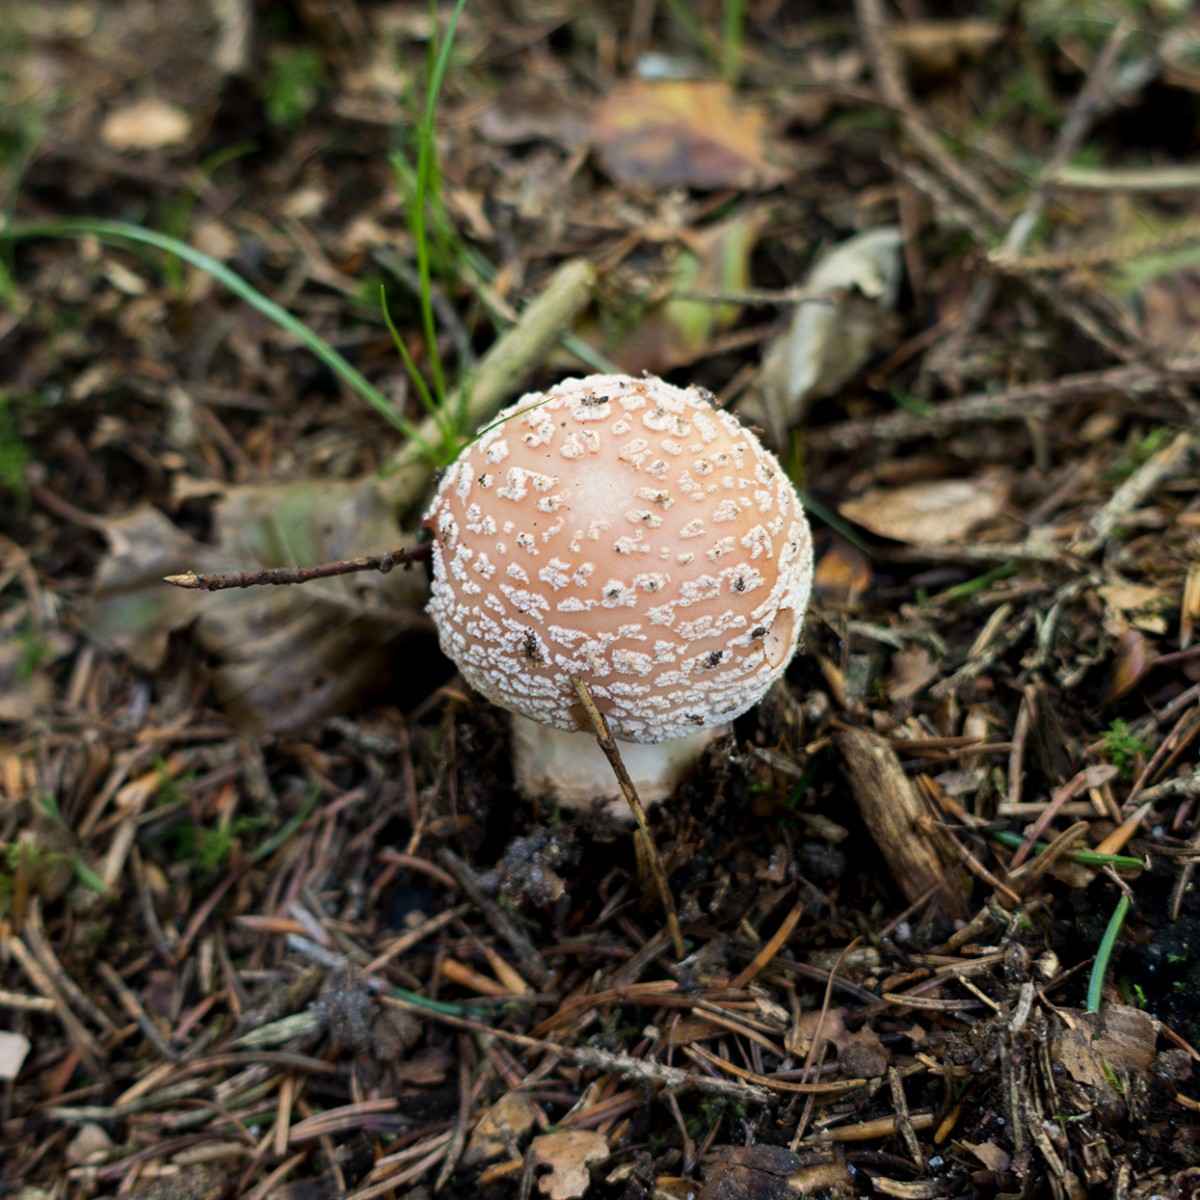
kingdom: Fungi
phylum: Basidiomycota
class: Agaricomycetes
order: Agaricales
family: Amanitaceae
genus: Amanita
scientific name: Amanita rubescens
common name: rødmende fluesvamp
